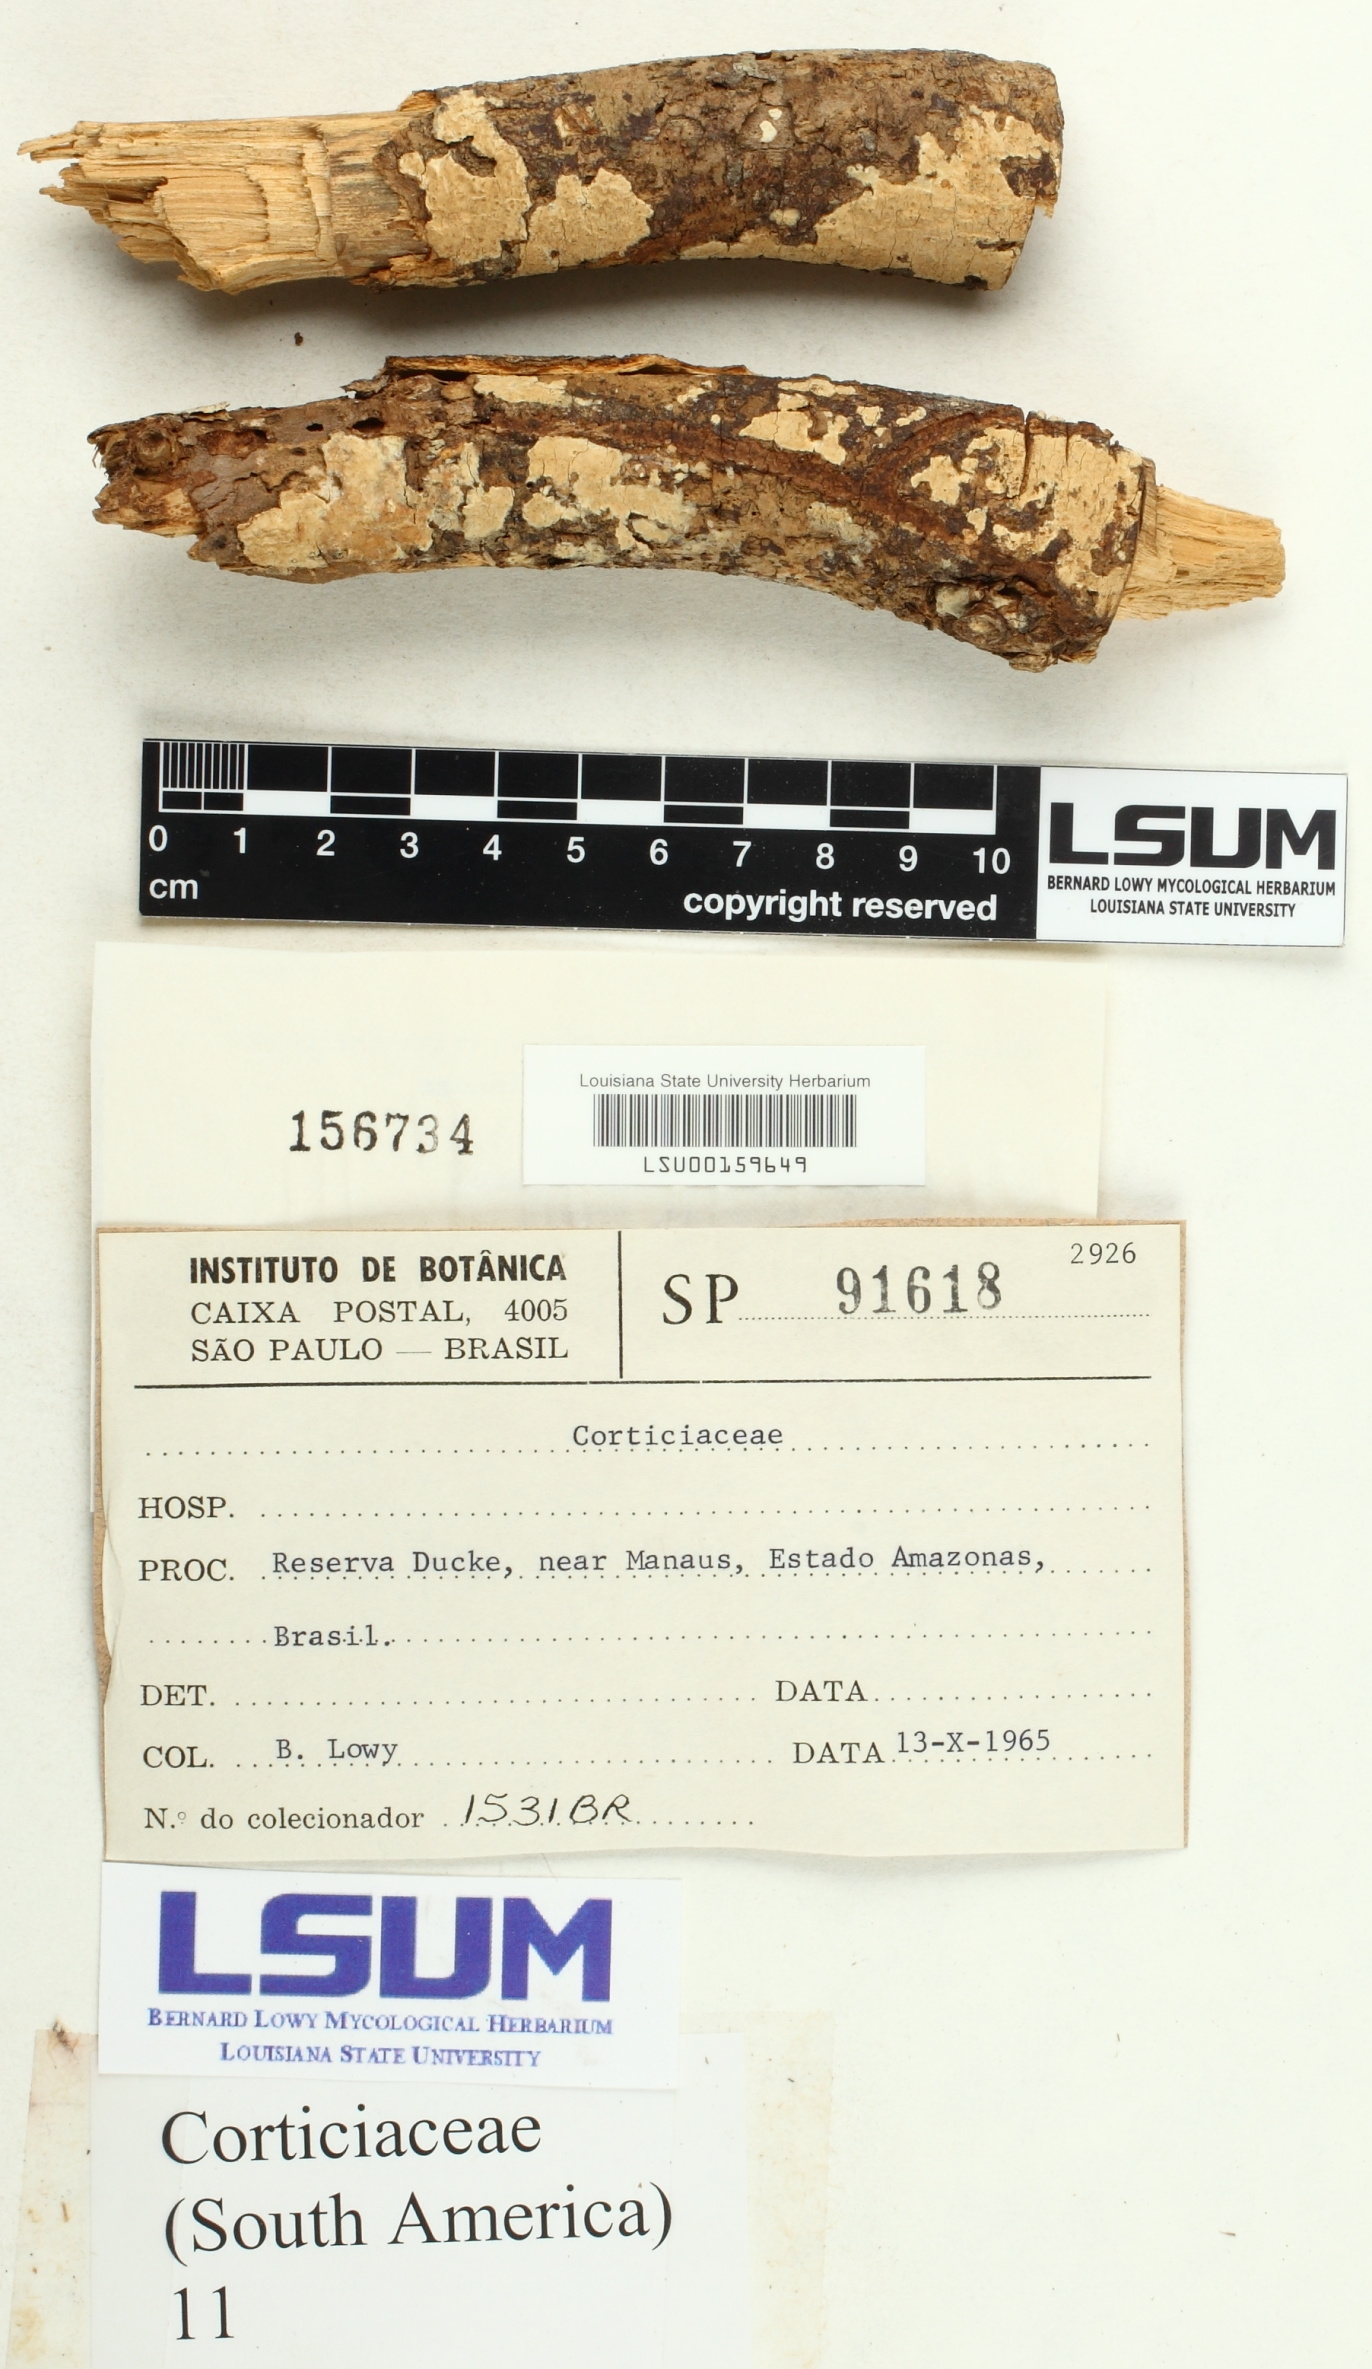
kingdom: Fungi
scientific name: Fungi
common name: Fungi
